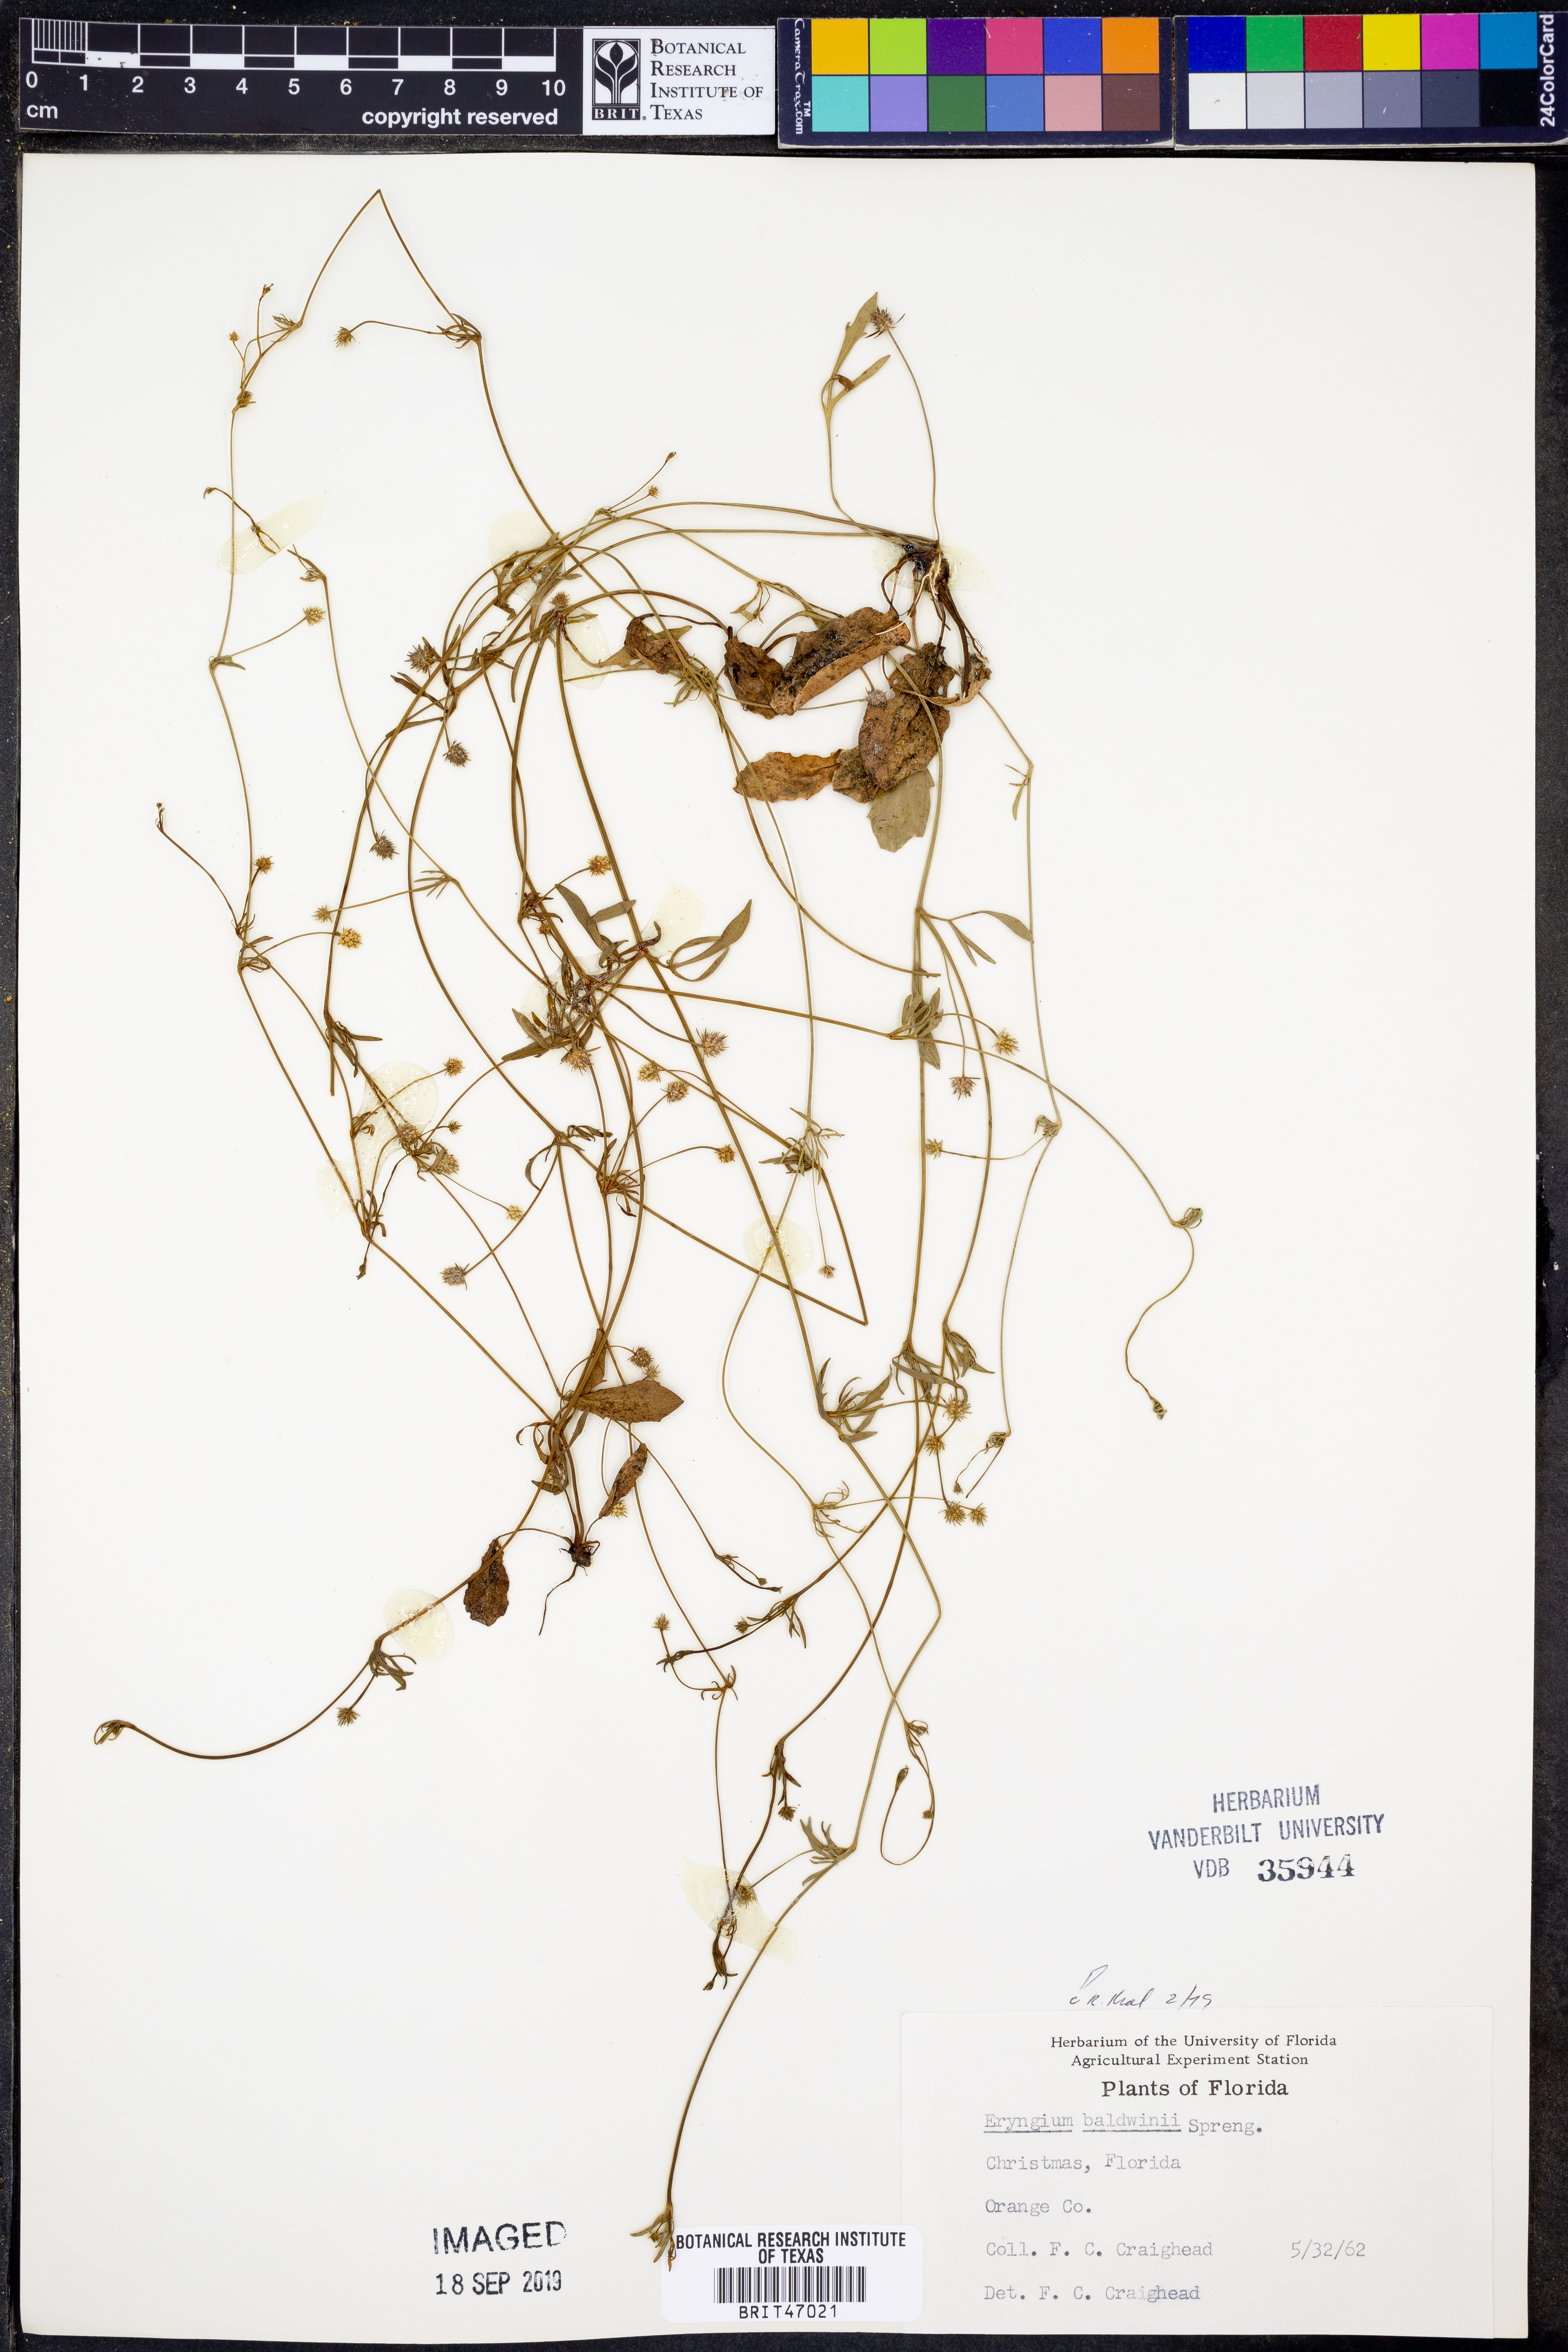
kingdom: Plantae
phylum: Tracheophyta
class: Magnoliopsida
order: Apiales
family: Apiaceae
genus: Eryngium
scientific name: Eryngium baldwinii
